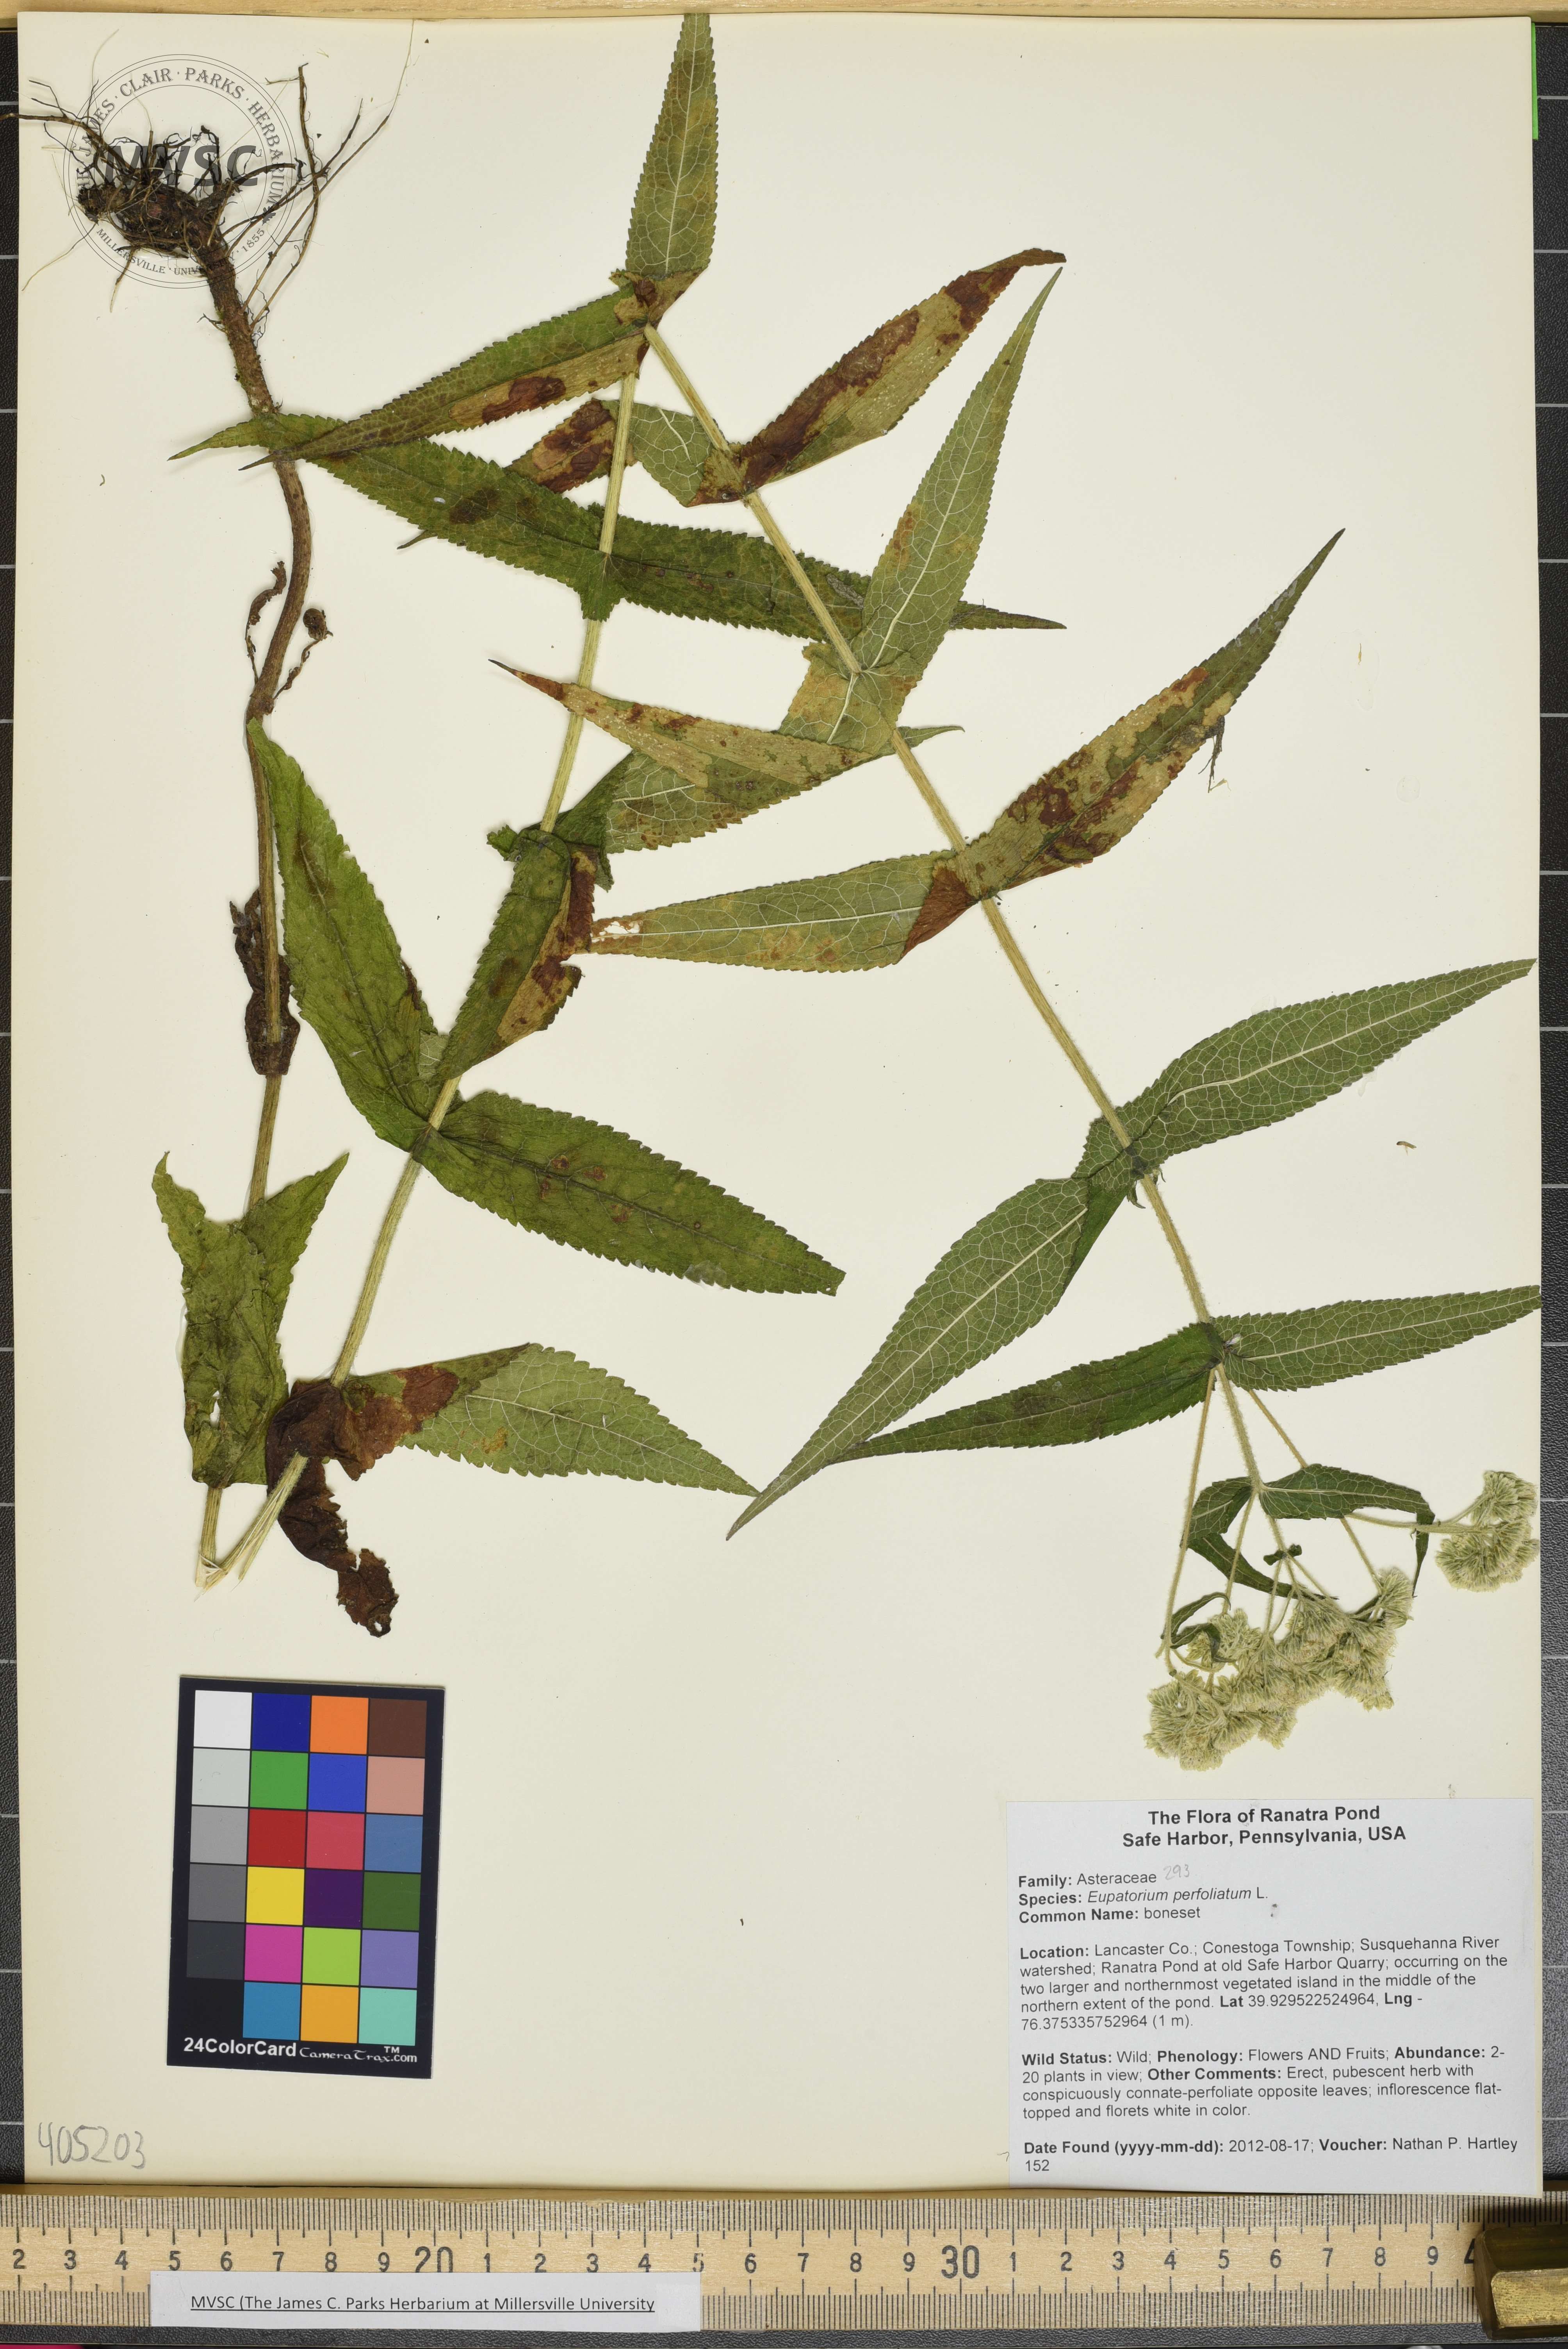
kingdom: Plantae
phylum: Tracheophyta
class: Magnoliopsida
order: Asterales
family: Asteraceae
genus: Eupatorium
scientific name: Eupatorium perfoliatum
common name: boneset
